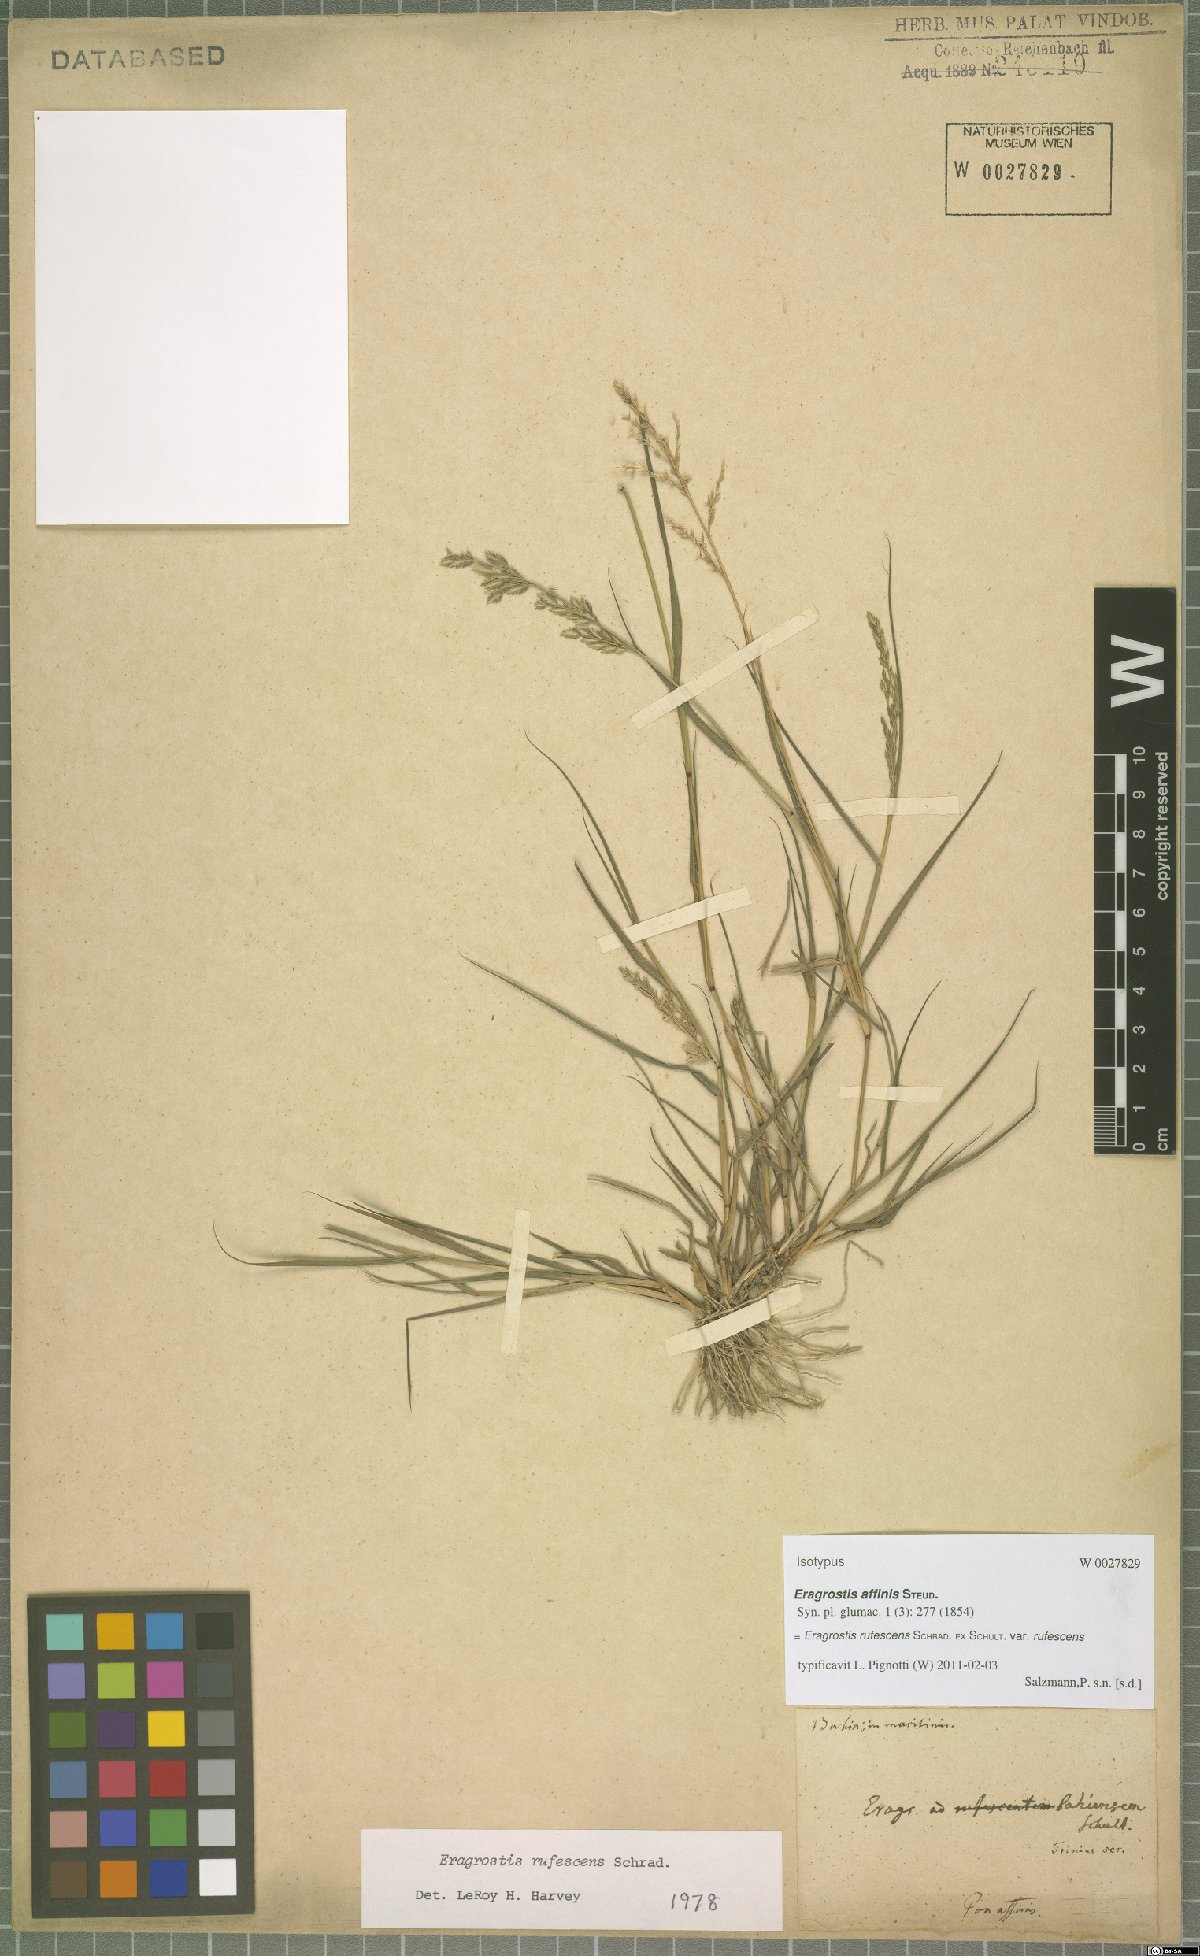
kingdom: Plantae
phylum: Tracheophyta
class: Liliopsida
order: Poales
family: Poaceae
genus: Eragrostis
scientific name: Eragrostis rufescens
